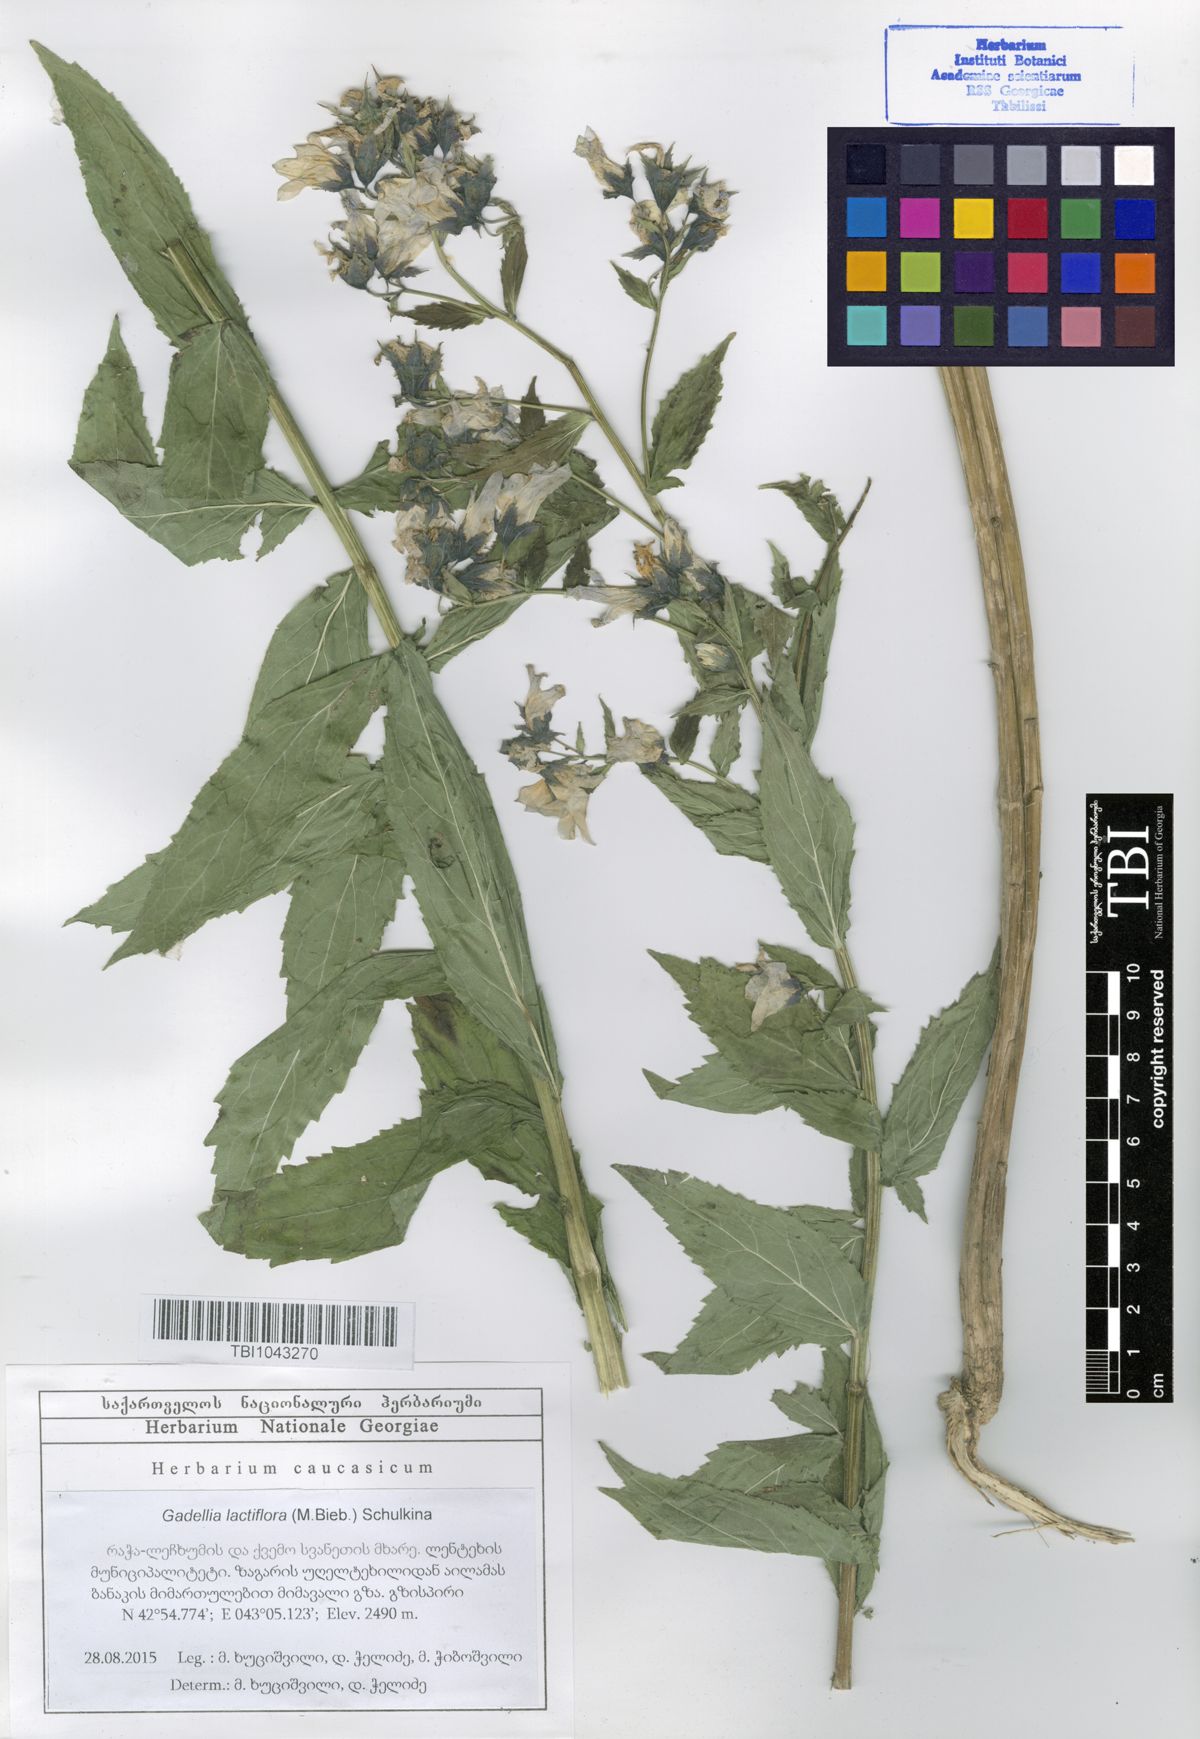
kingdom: Plantae
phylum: Tracheophyta
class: Magnoliopsida
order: Asterales
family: Campanulaceae
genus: Campanula
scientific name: Campanula lactiflora
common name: Milky bellflower
